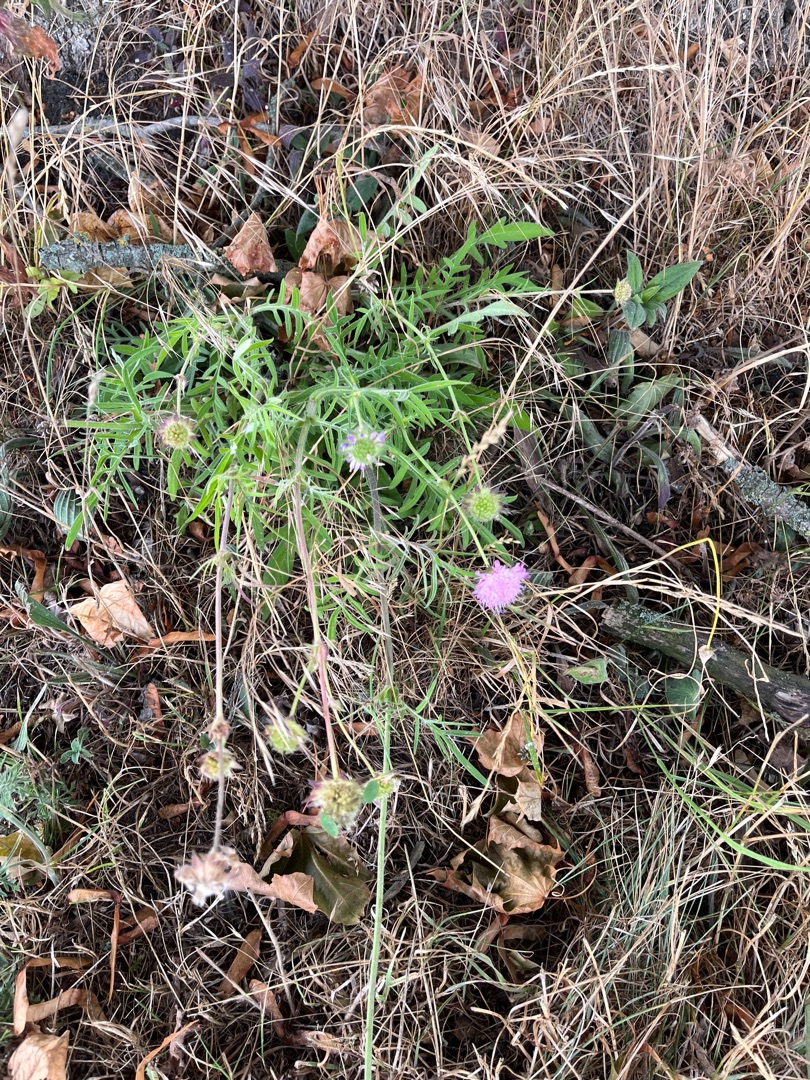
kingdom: Plantae
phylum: Tracheophyta
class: Magnoliopsida
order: Dipsacales
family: Caprifoliaceae
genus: Knautia
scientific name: Knautia arvensis
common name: Blåhat
